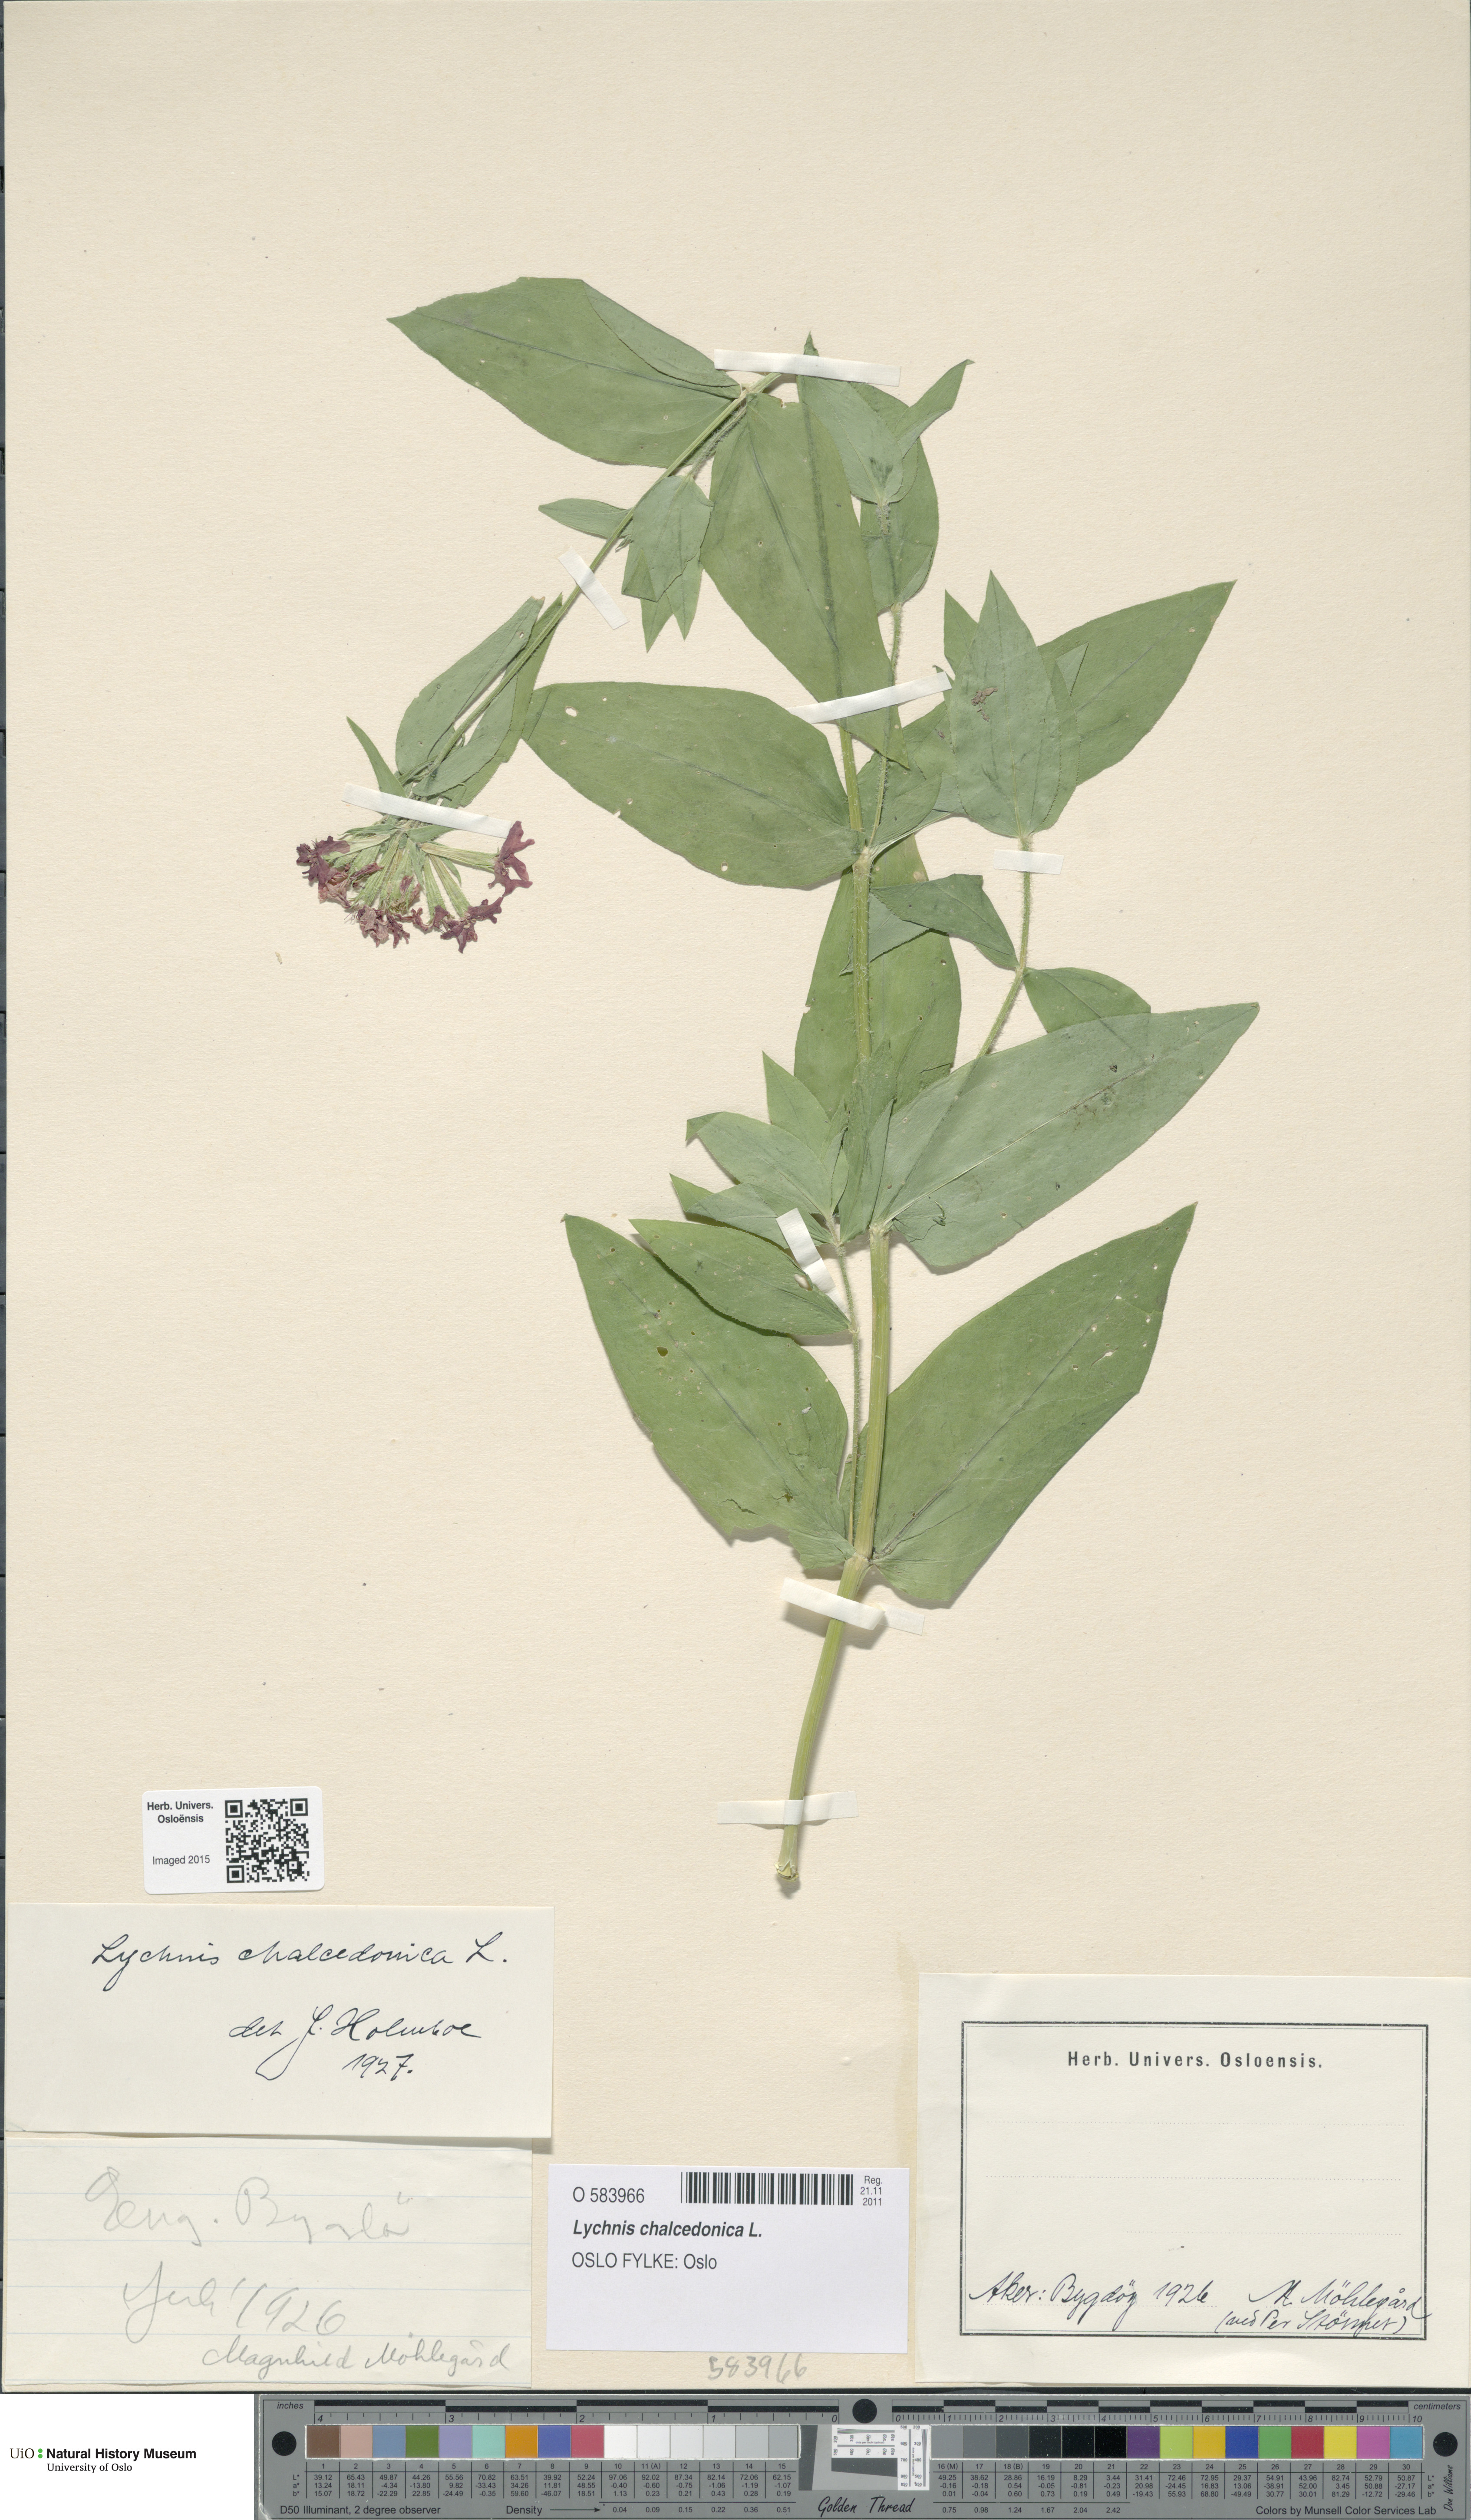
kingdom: Plantae
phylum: Tracheophyta
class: Magnoliopsida
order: Caryophyllales
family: Caryophyllaceae
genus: Silene
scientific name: Silene chalcedonica
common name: Maltese-cross
